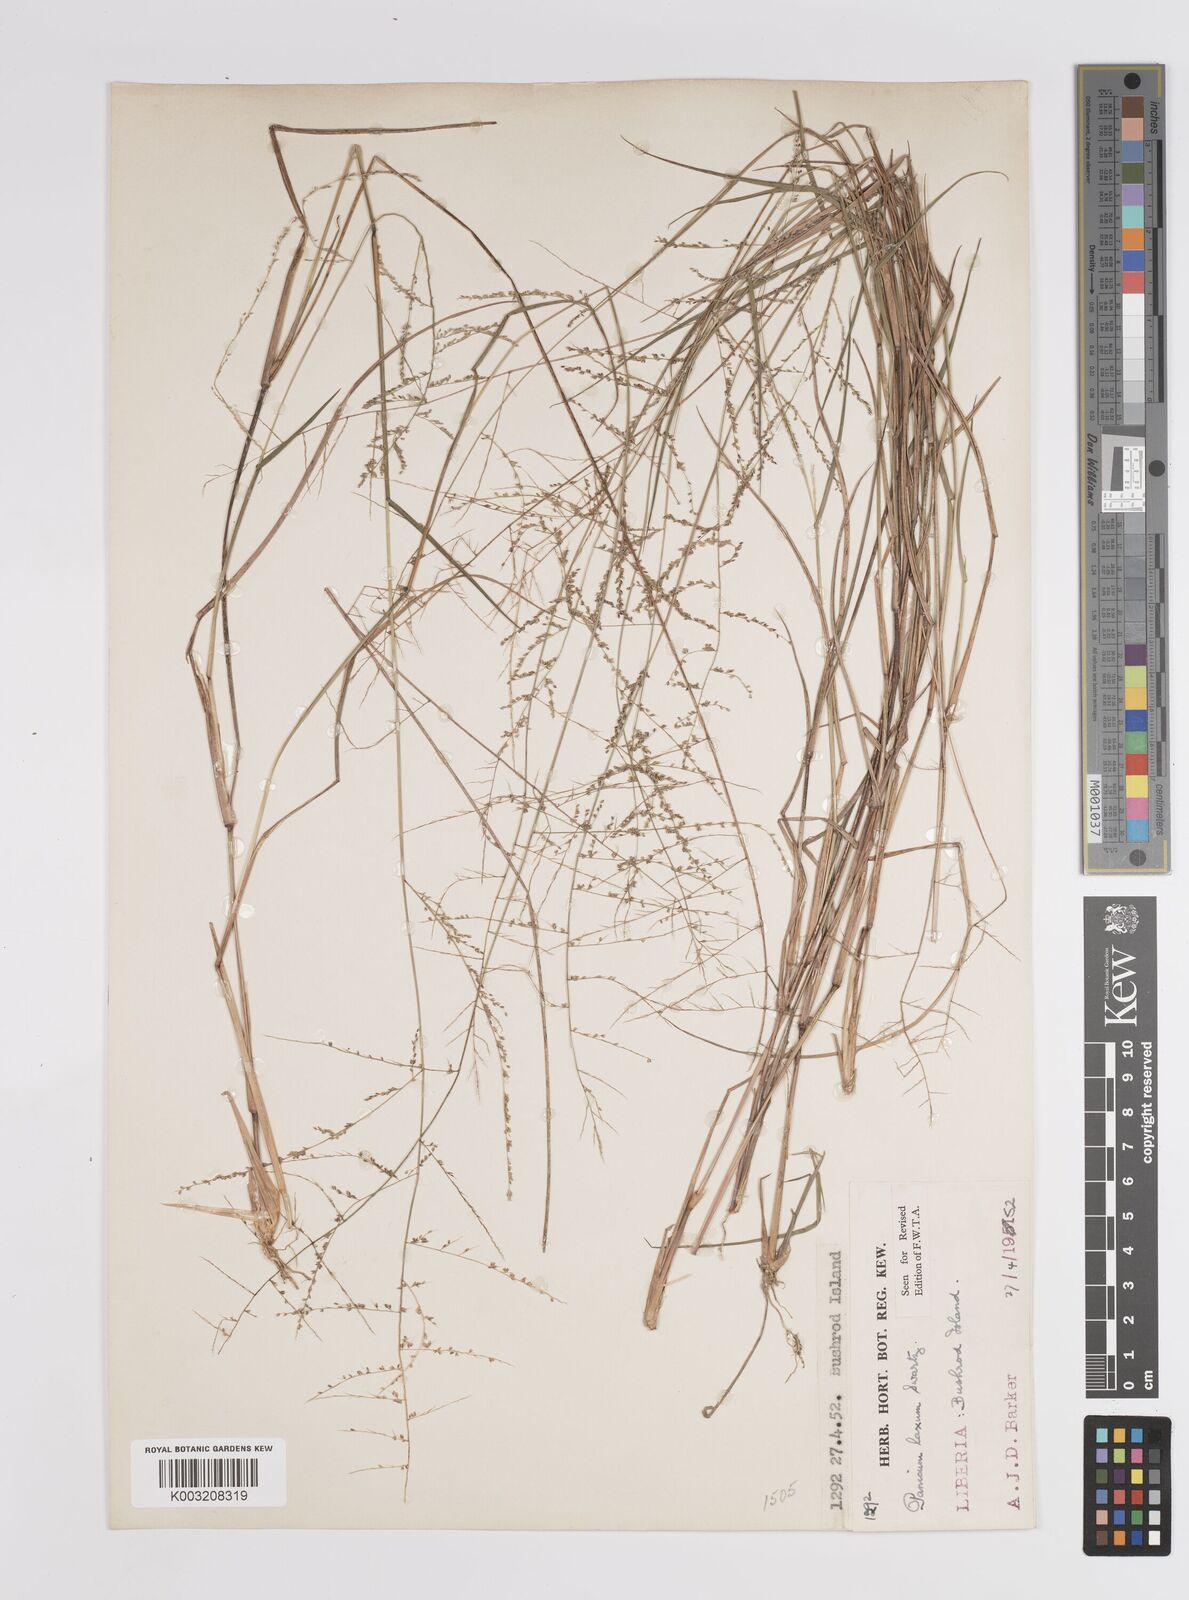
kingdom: Plantae
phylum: Tracheophyta
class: Liliopsida
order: Poales
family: Poaceae
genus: Steinchisma
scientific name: Steinchisma laxum
